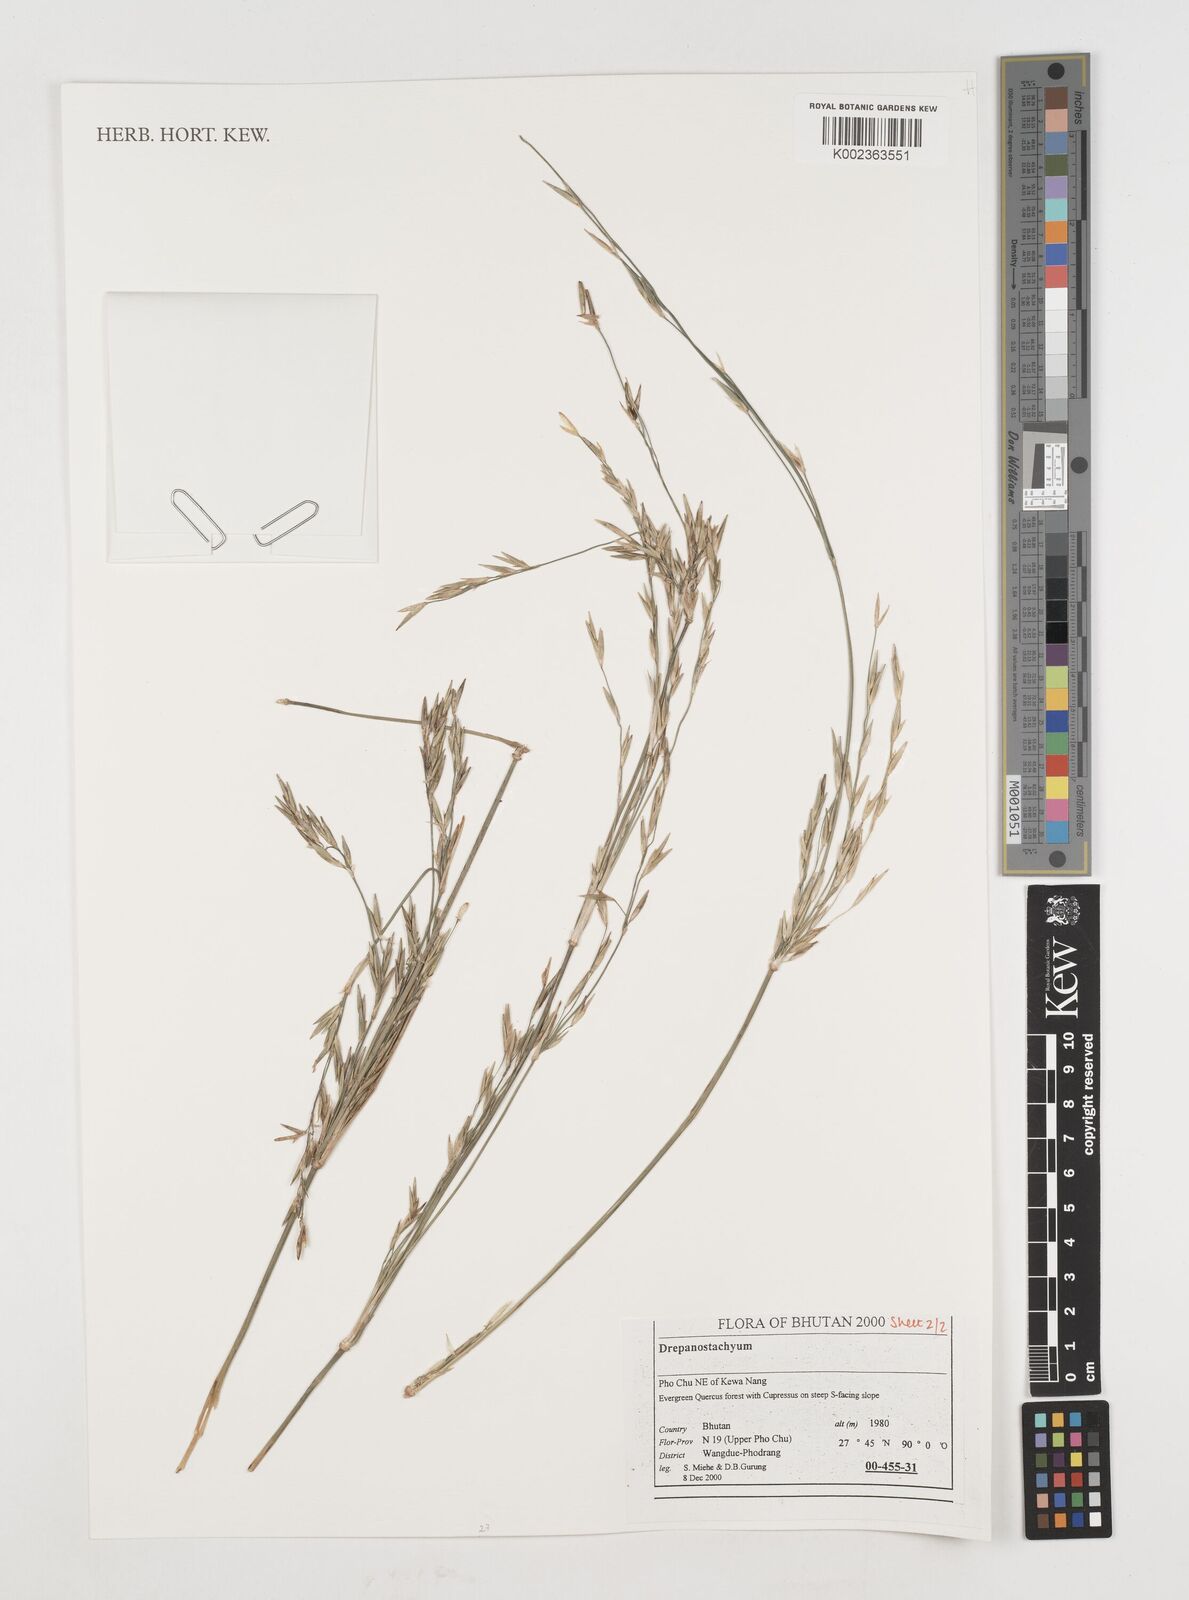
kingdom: Plantae
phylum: Tracheophyta
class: Liliopsida
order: Poales
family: Poaceae
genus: Himalayacalamus
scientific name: Himalayacalamus falconeri
